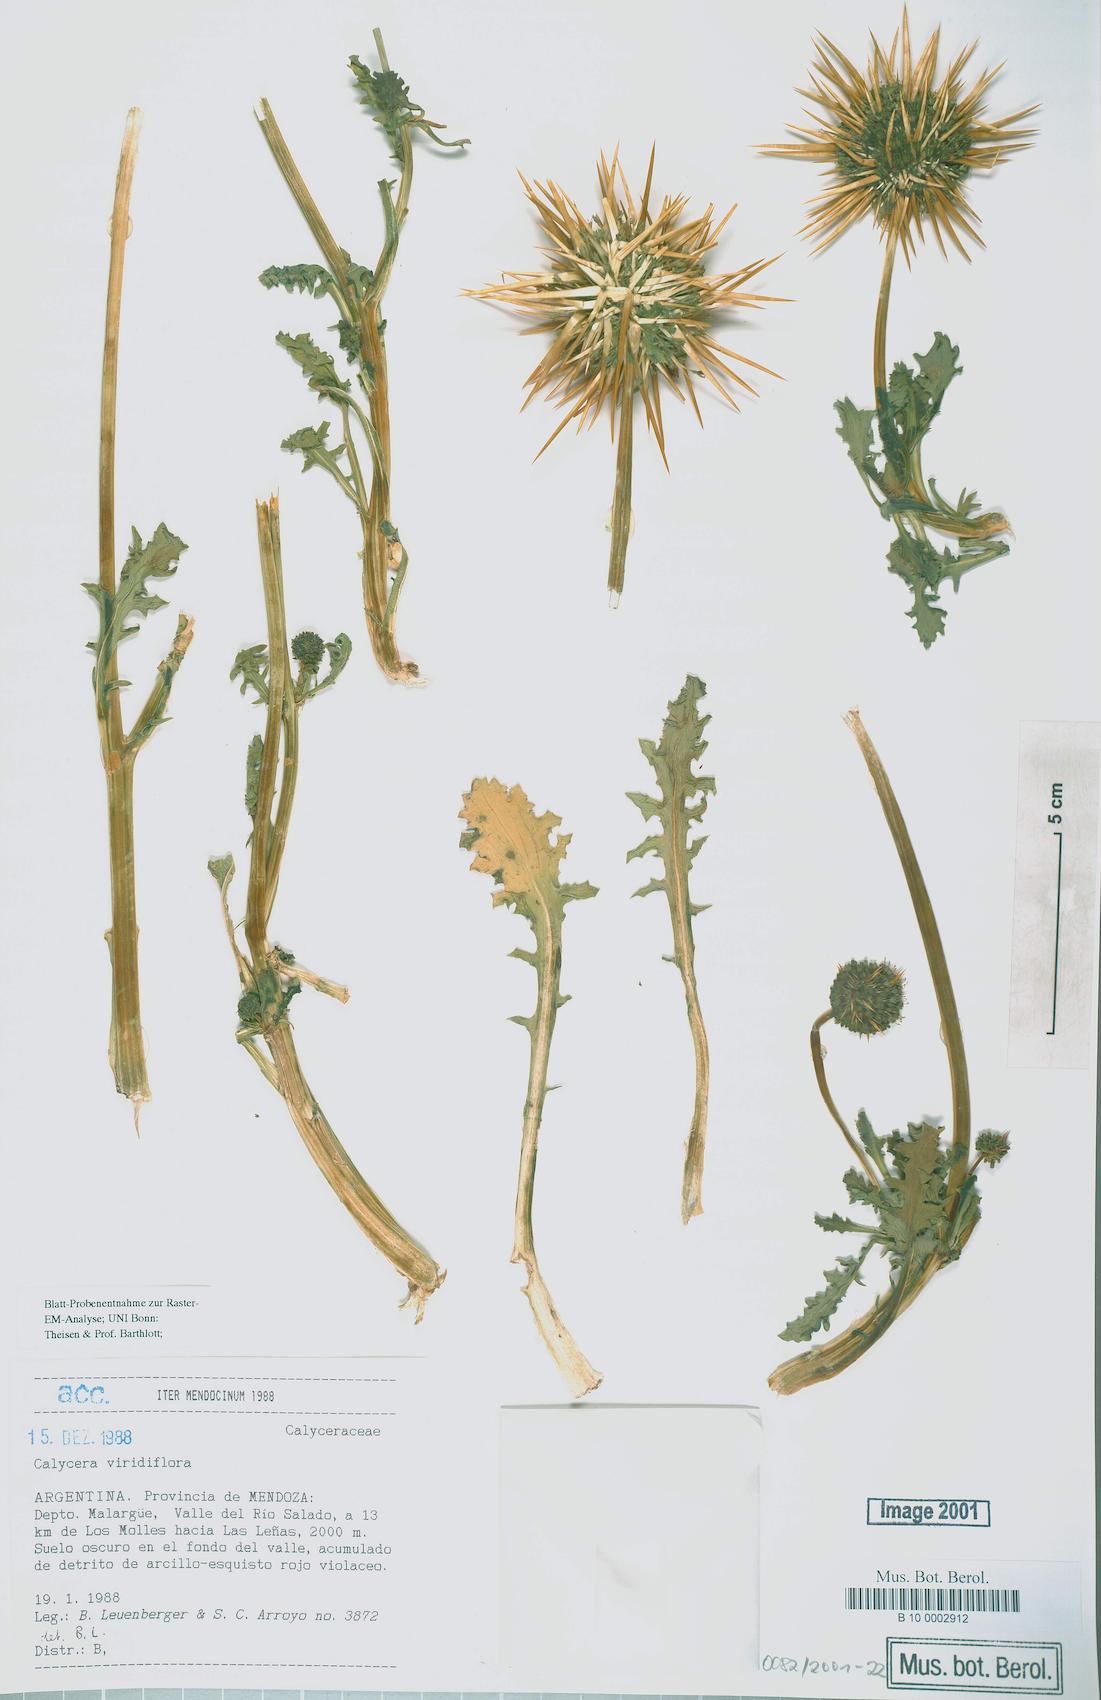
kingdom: Plantae
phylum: Tracheophyta
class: Magnoliopsida
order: Asterales
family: Calyceraceae
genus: Calycera
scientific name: Calycera herbacea
